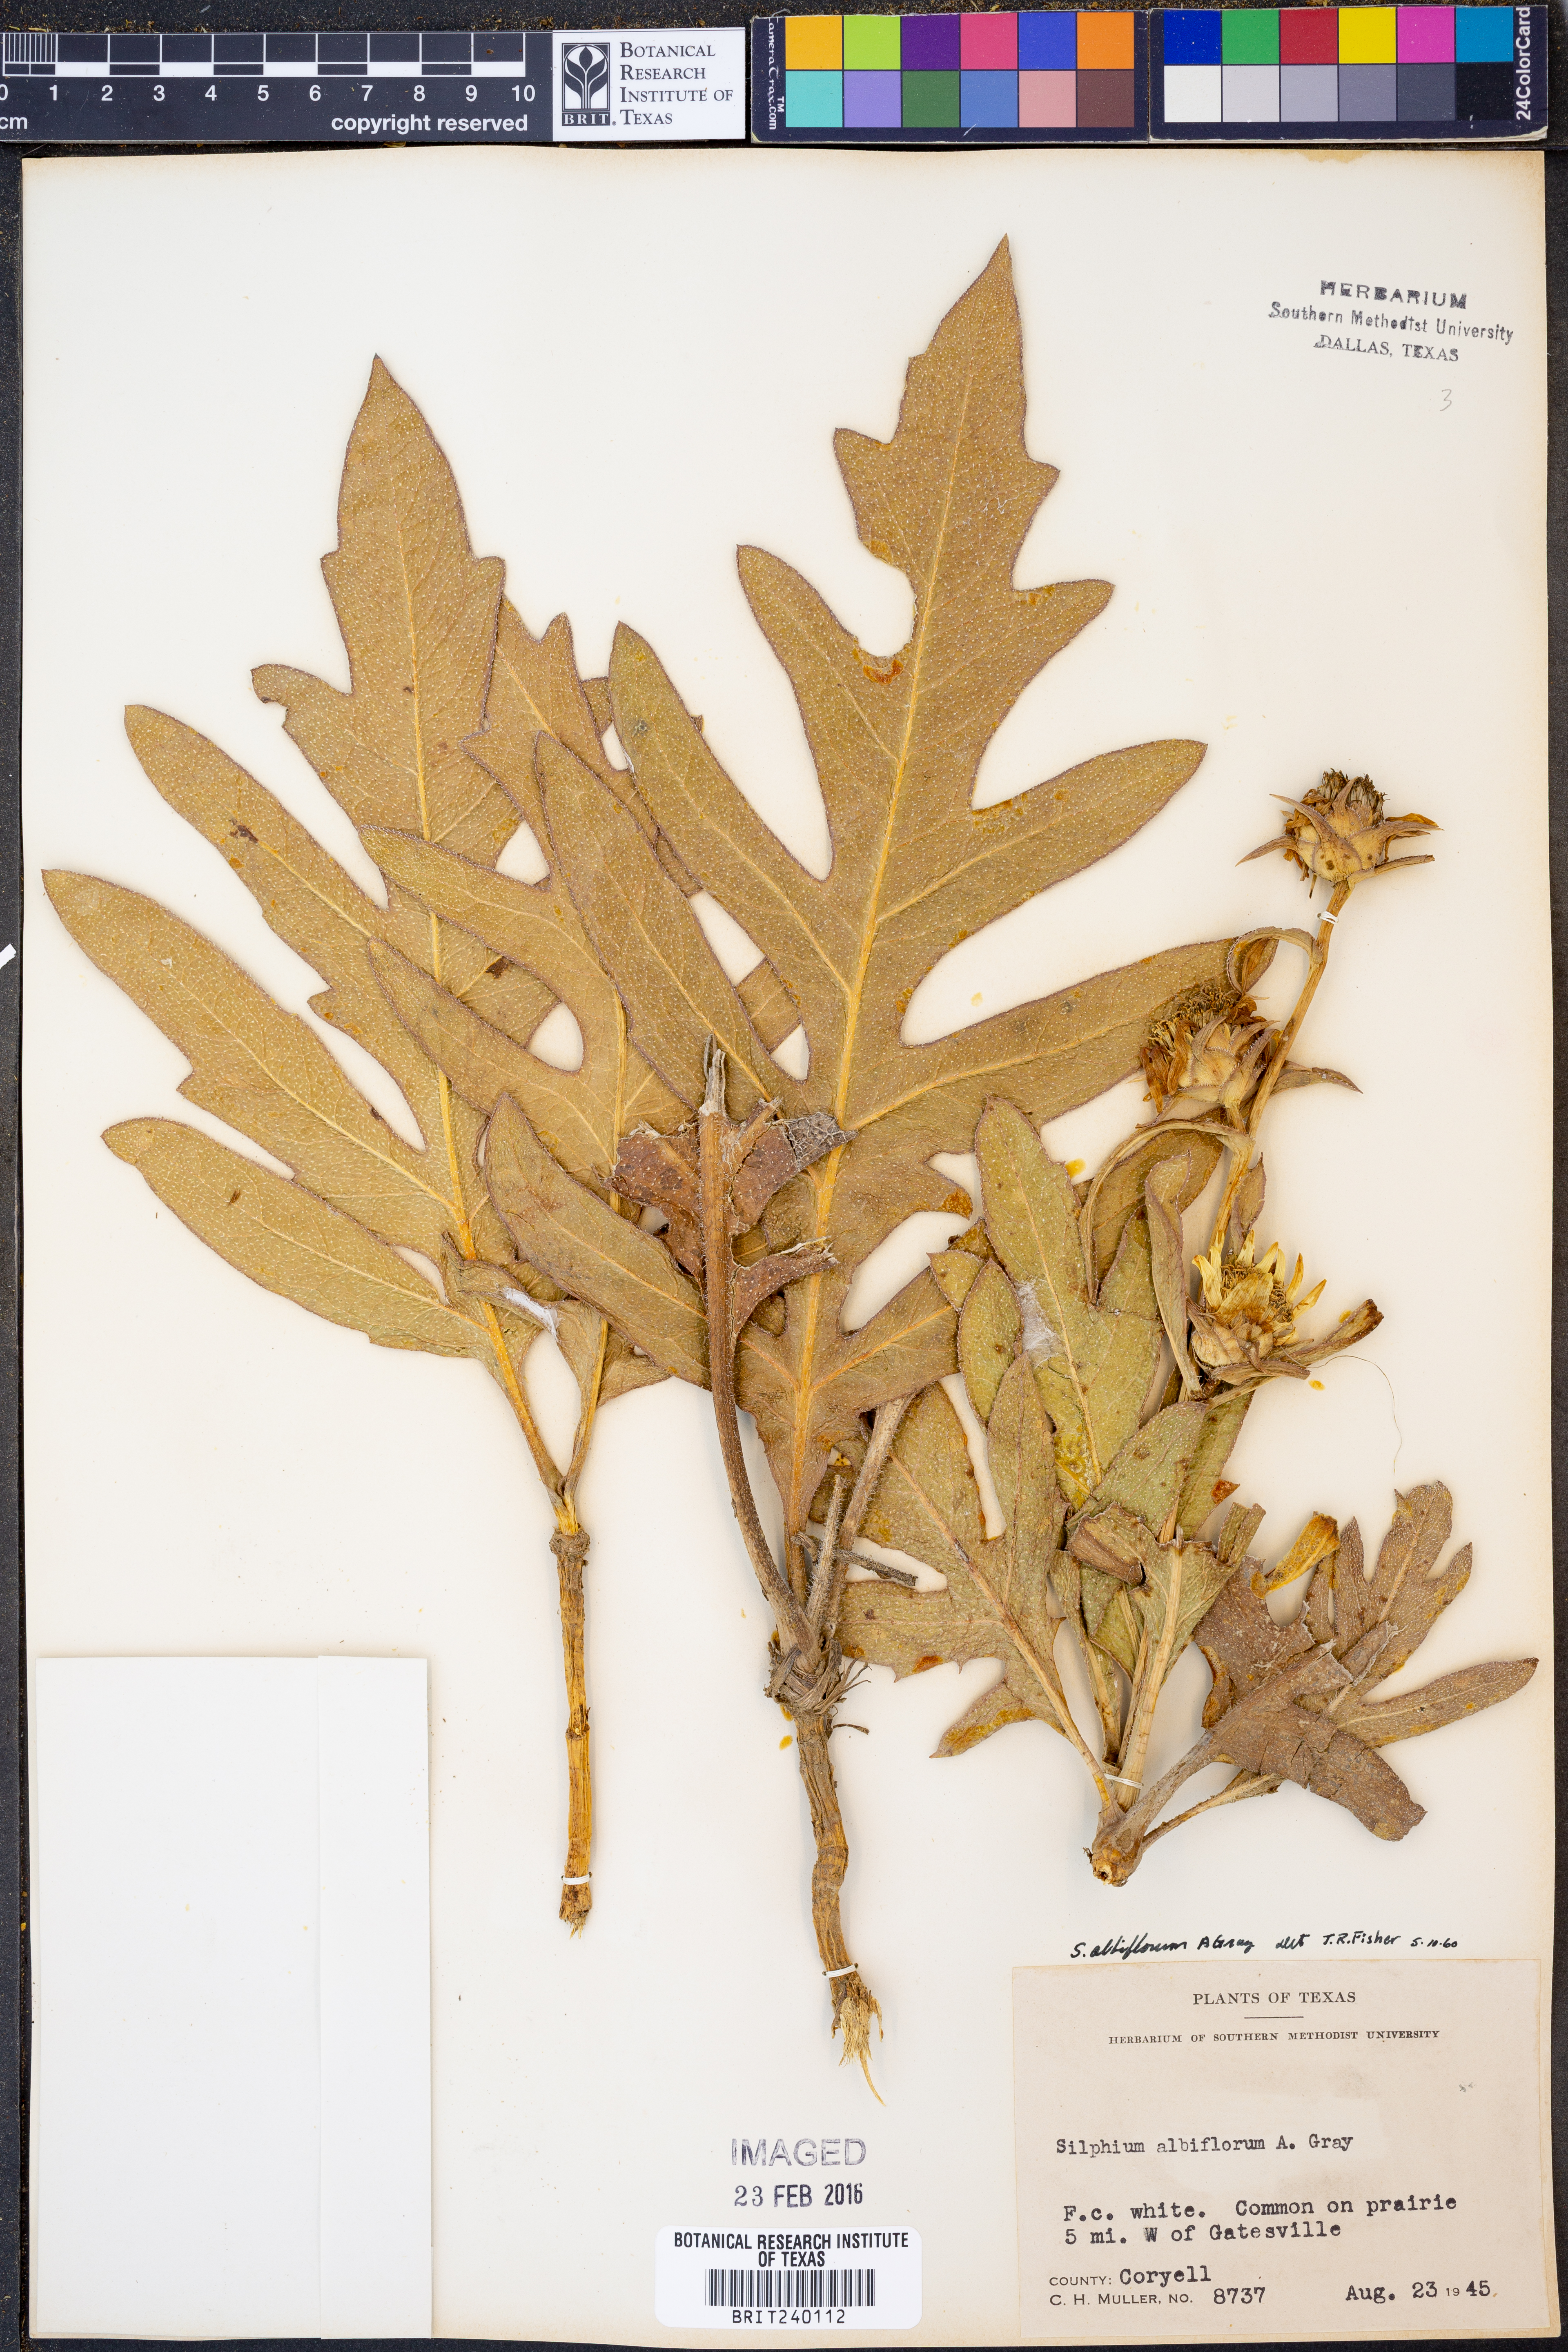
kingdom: Plantae
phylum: Tracheophyta
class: Magnoliopsida
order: Asterales
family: Asteraceae
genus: Silphium
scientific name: Silphium albiflorum
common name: White rosinweed
